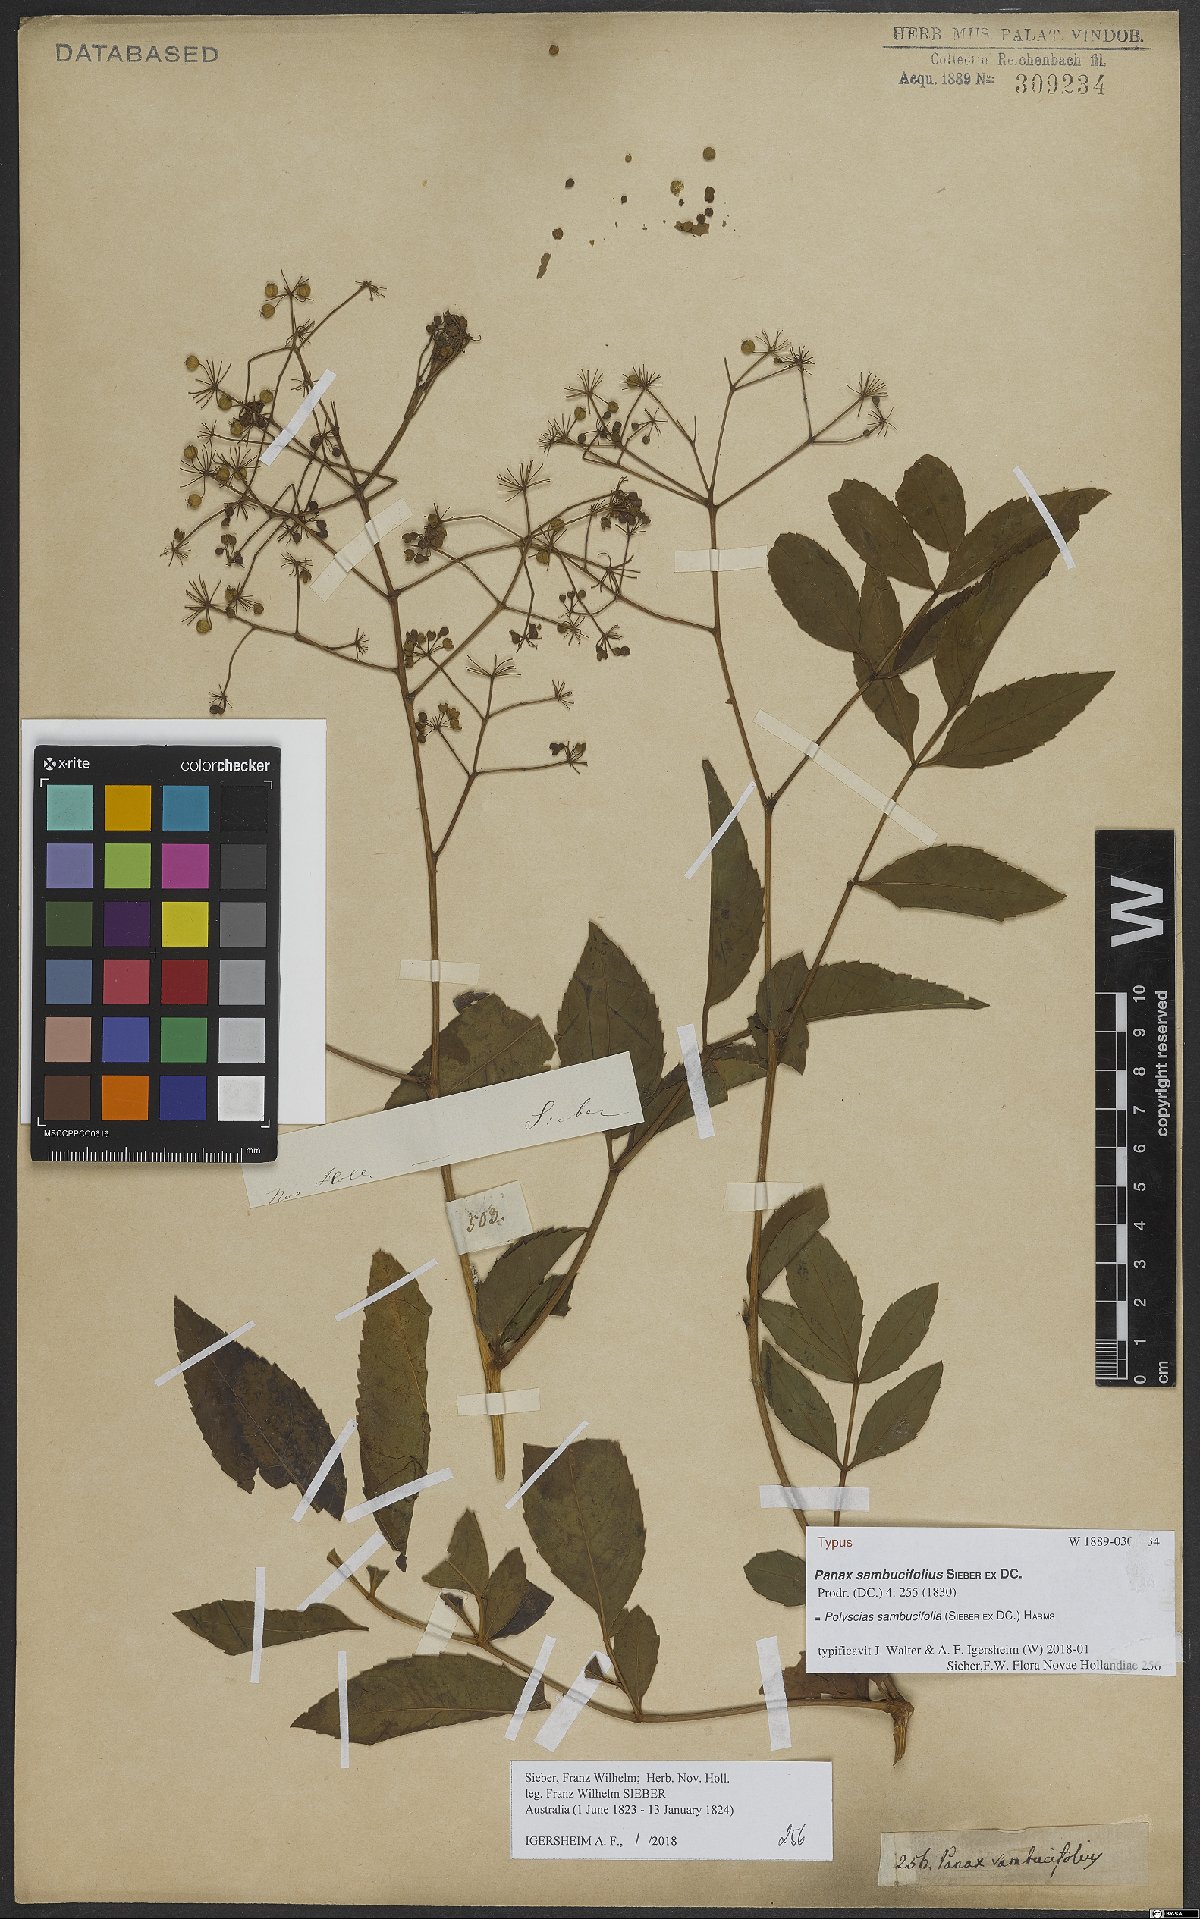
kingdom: Plantae
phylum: Tracheophyta
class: Magnoliopsida
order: Apiales
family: Araliaceae
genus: Polyscias
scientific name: Polyscias sambucifolia
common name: Elderberry-ash
